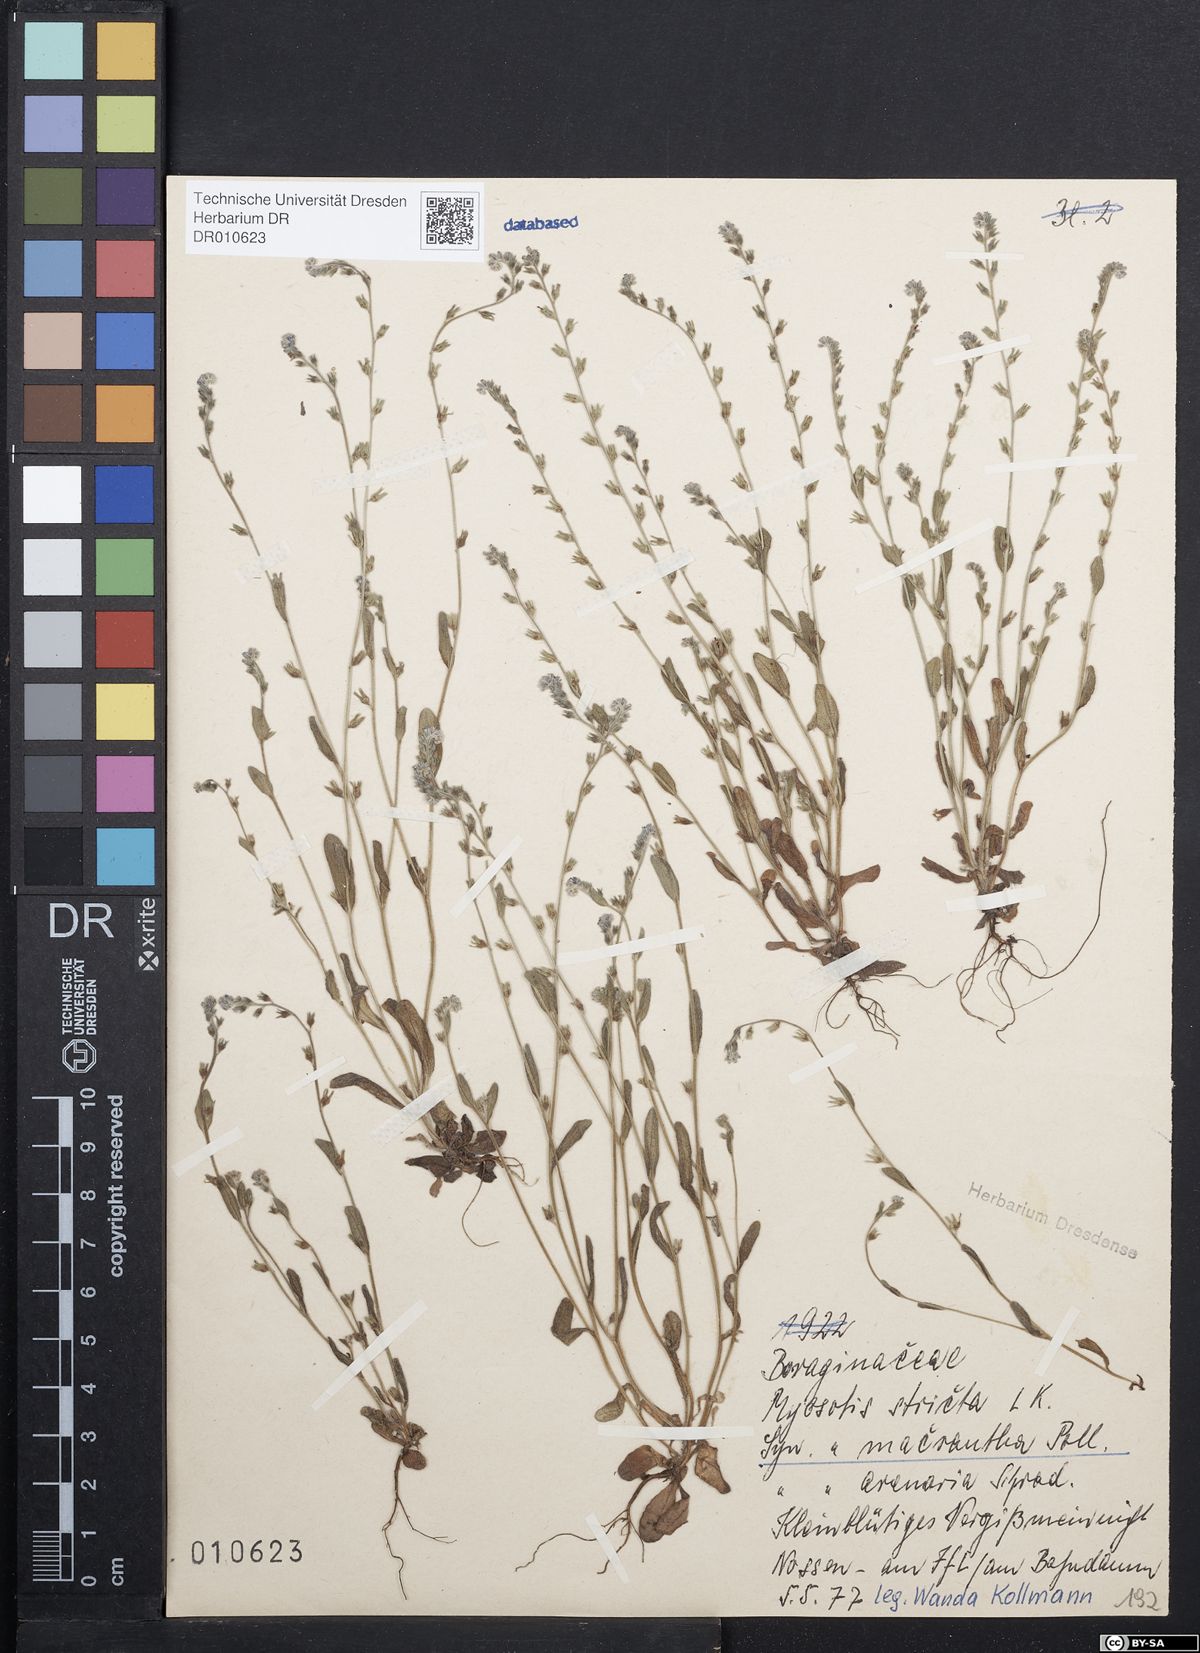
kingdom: Plantae
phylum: Tracheophyta
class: Magnoliopsida
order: Boraginales
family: Boraginaceae
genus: Myosotis
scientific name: Myosotis stricta
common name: Strict forget-me-not
